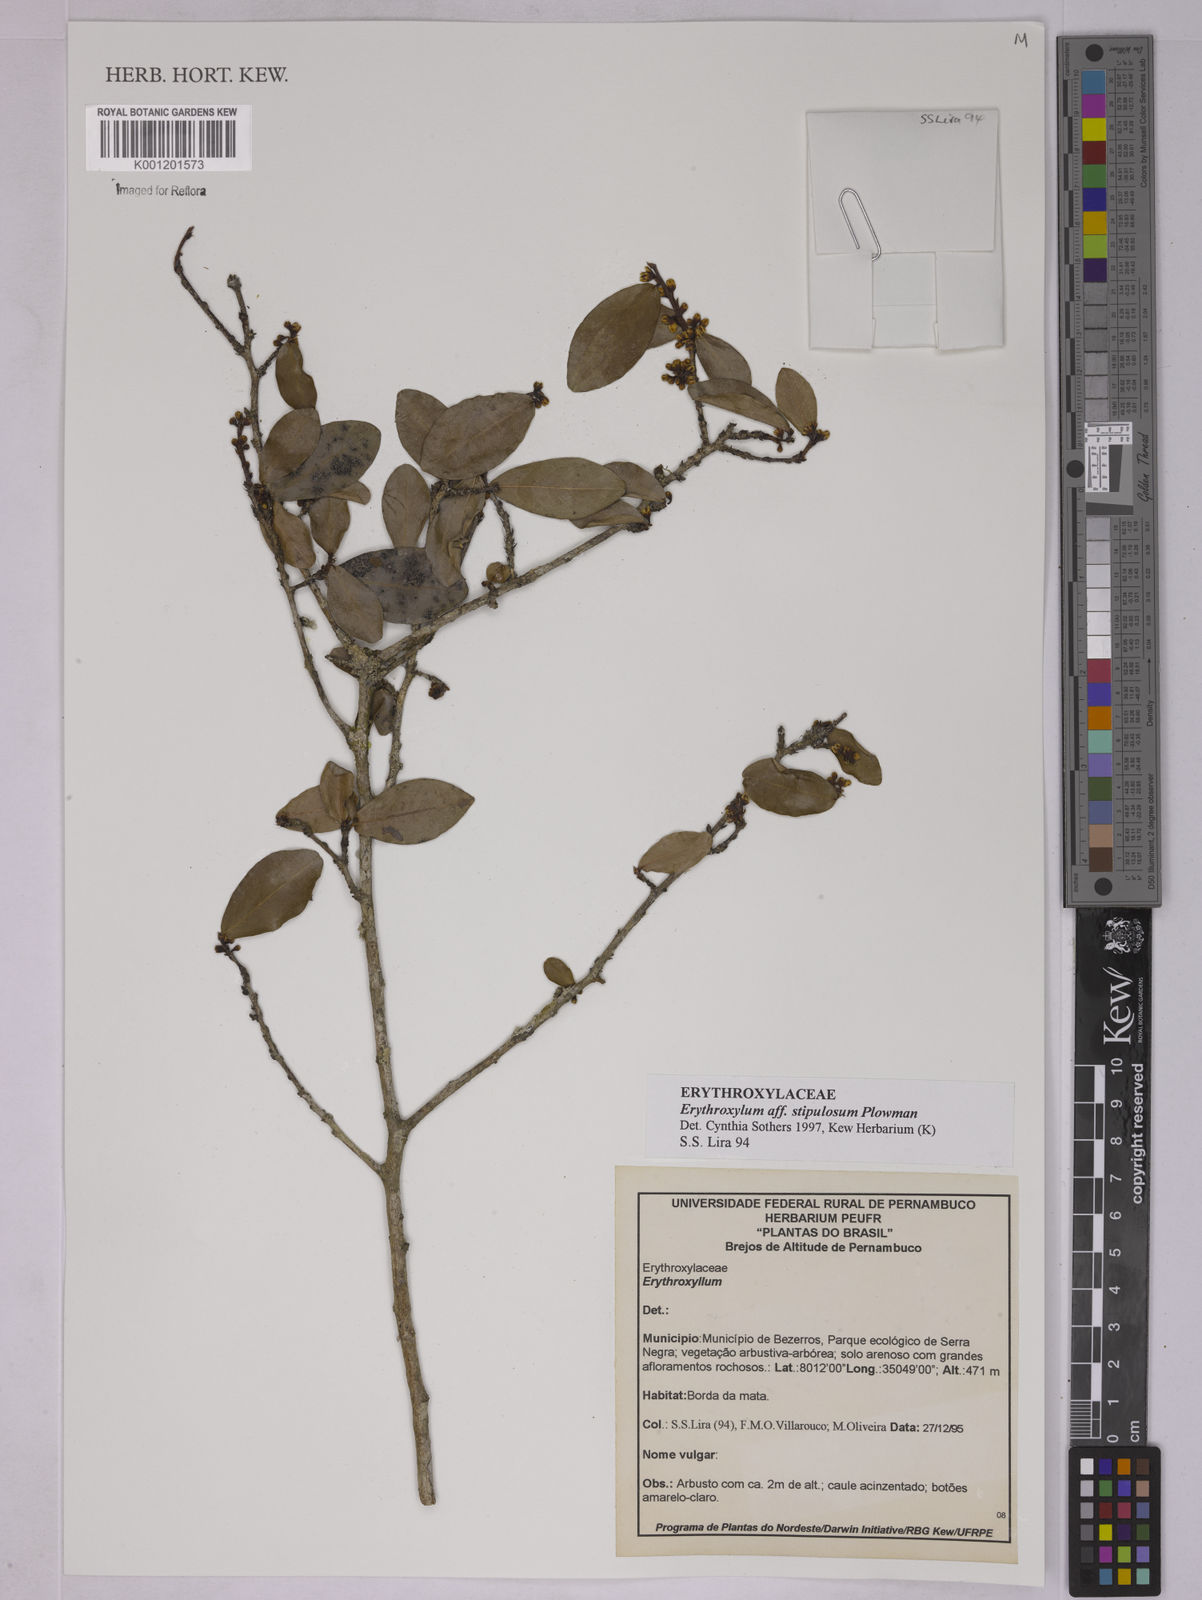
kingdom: Plantae
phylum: Tracheophyta
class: Magnoliopsida
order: Malpighiales
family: Erythroxylaceae
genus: Erythroxylum
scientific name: Erythroxylum stipulosum
